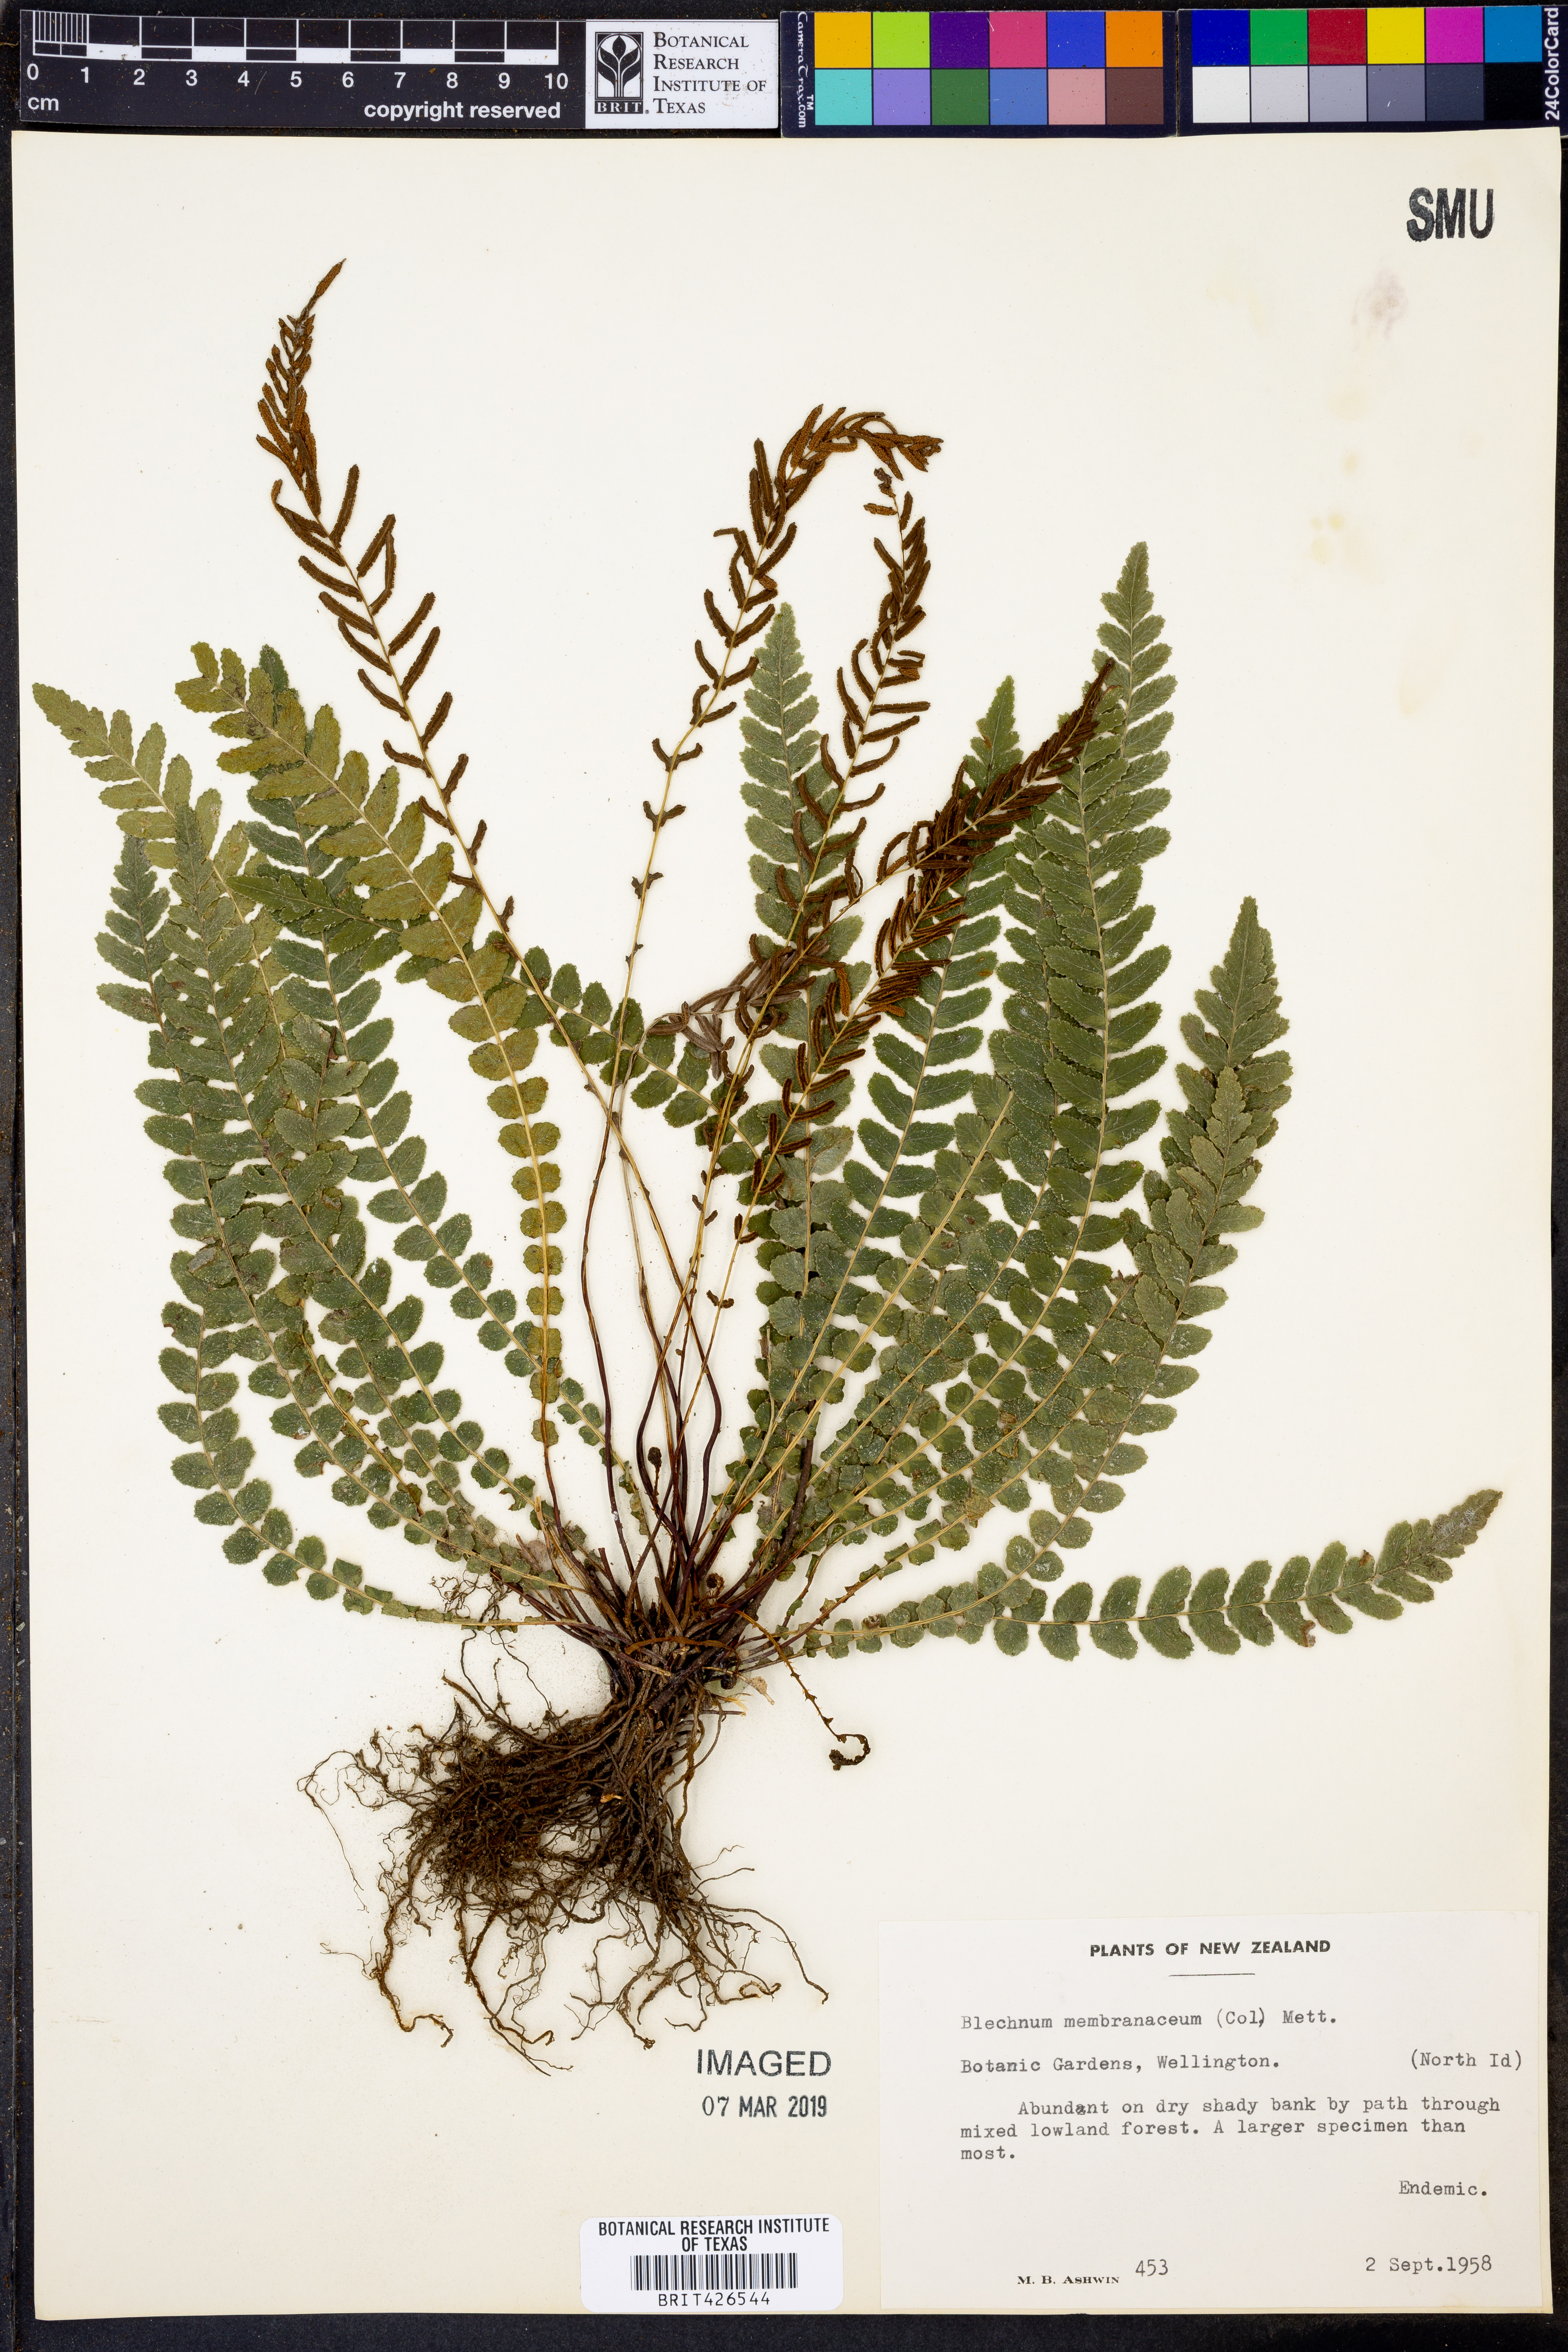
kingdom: Plantae
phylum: Tracheophyta
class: Polypodiopsida
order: Polypodiales
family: Blechnaceae
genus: Austroblechnum
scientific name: Austroblechnum membranaceum
